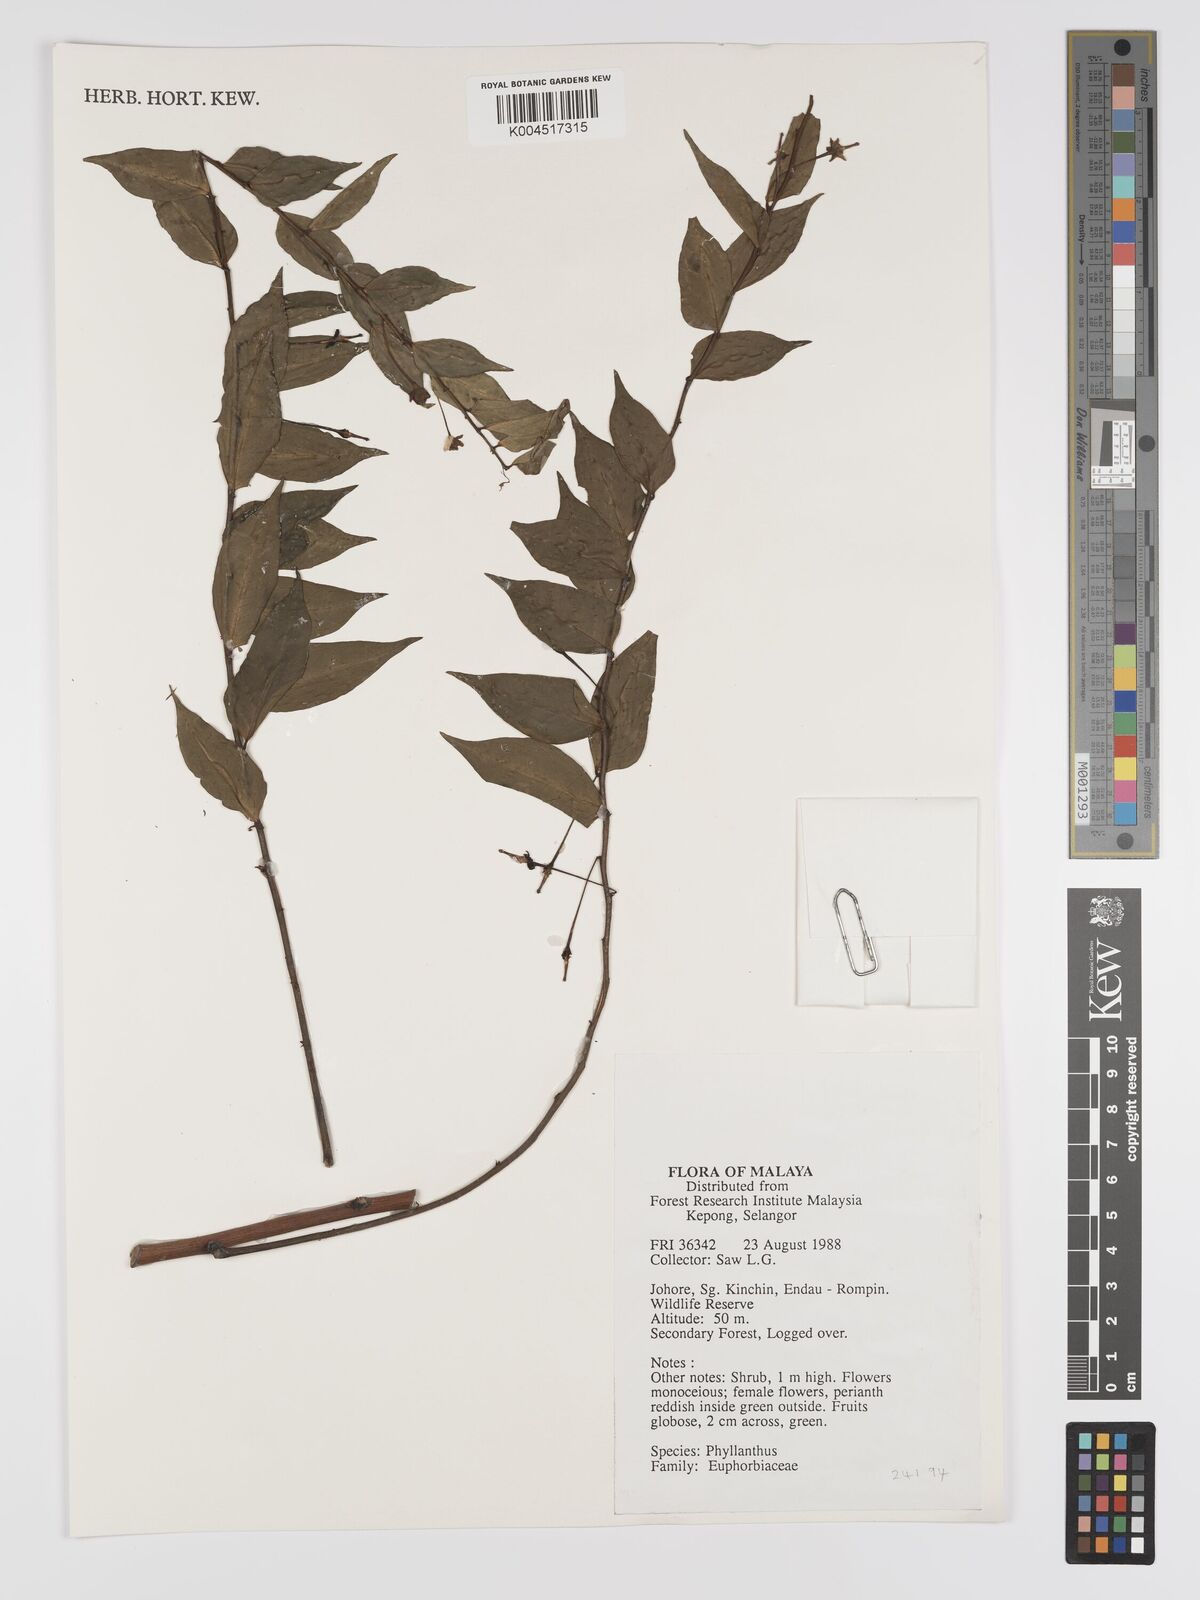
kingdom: Plantae
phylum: Tracheophyta
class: Magnoliopsida
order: Malpighiales
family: Phyllanthaceae
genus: Phyllanthus
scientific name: Phyllanthus
